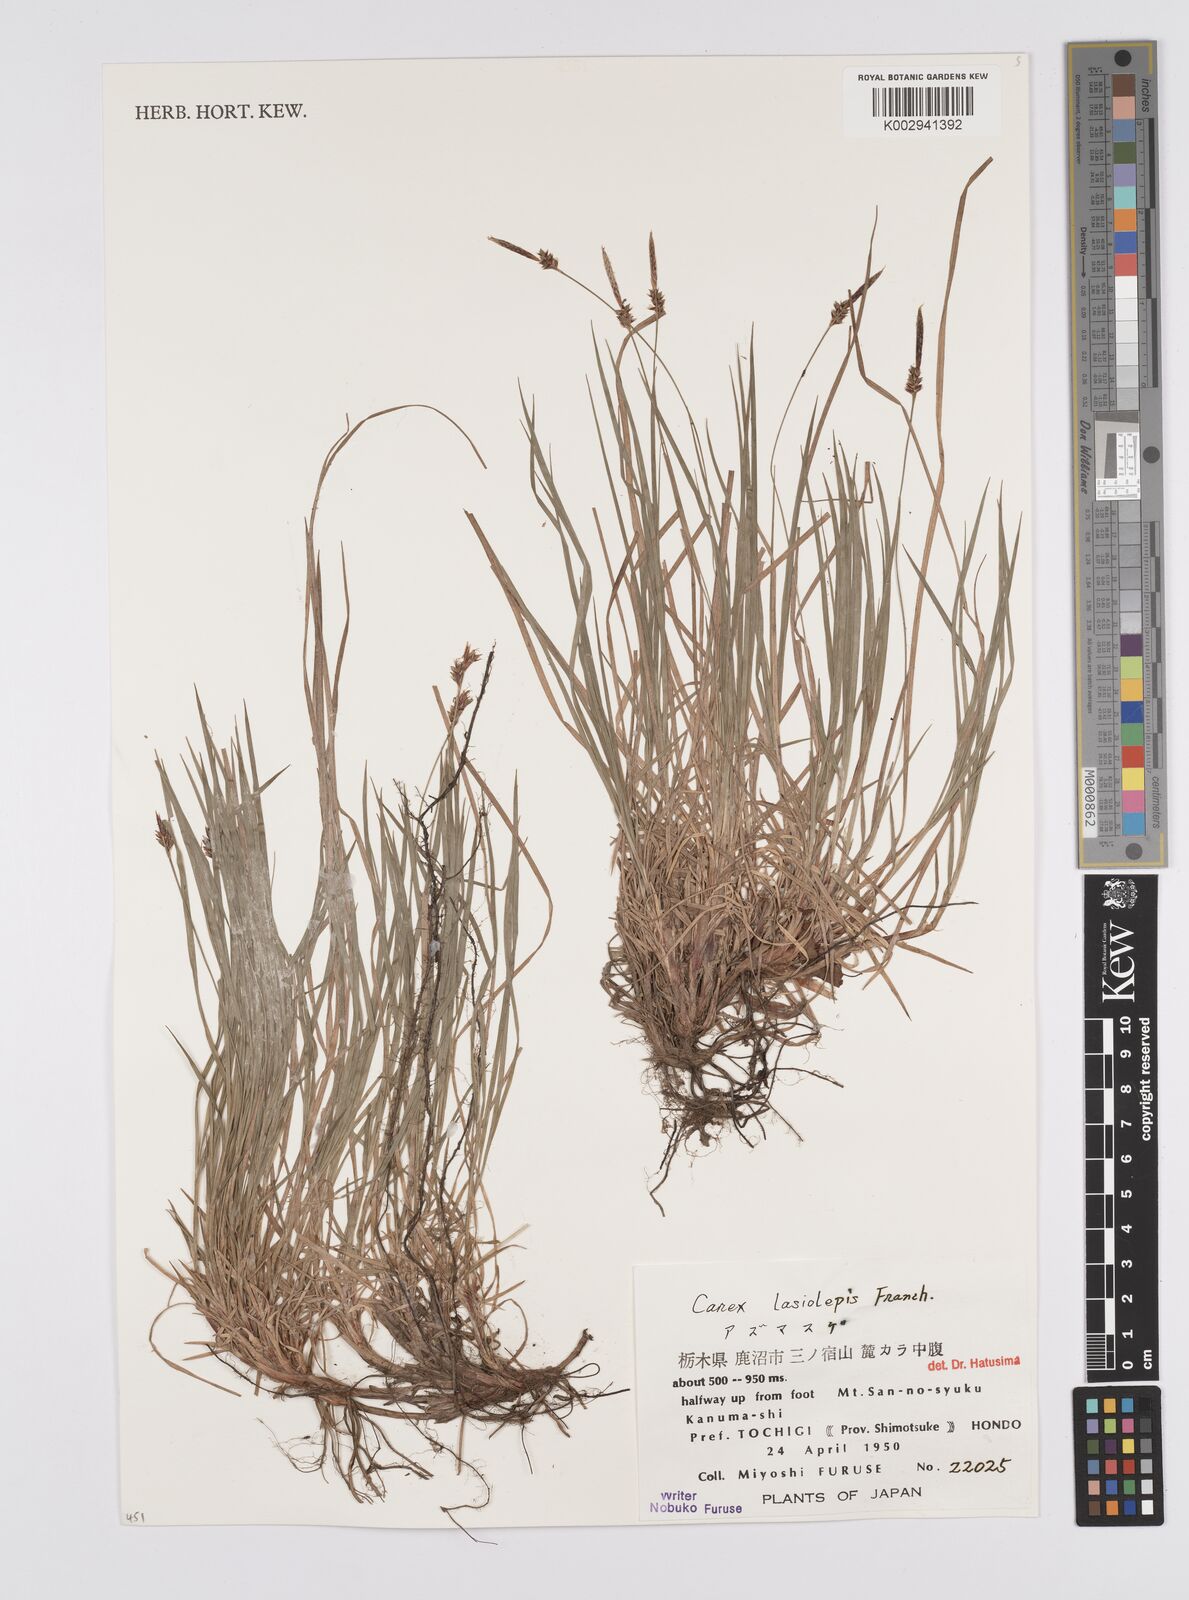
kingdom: Plantae
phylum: Tracheophyta
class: Liliopsida
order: Poales
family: Cyperaceae
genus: Carex
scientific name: Carex lasiolepis
